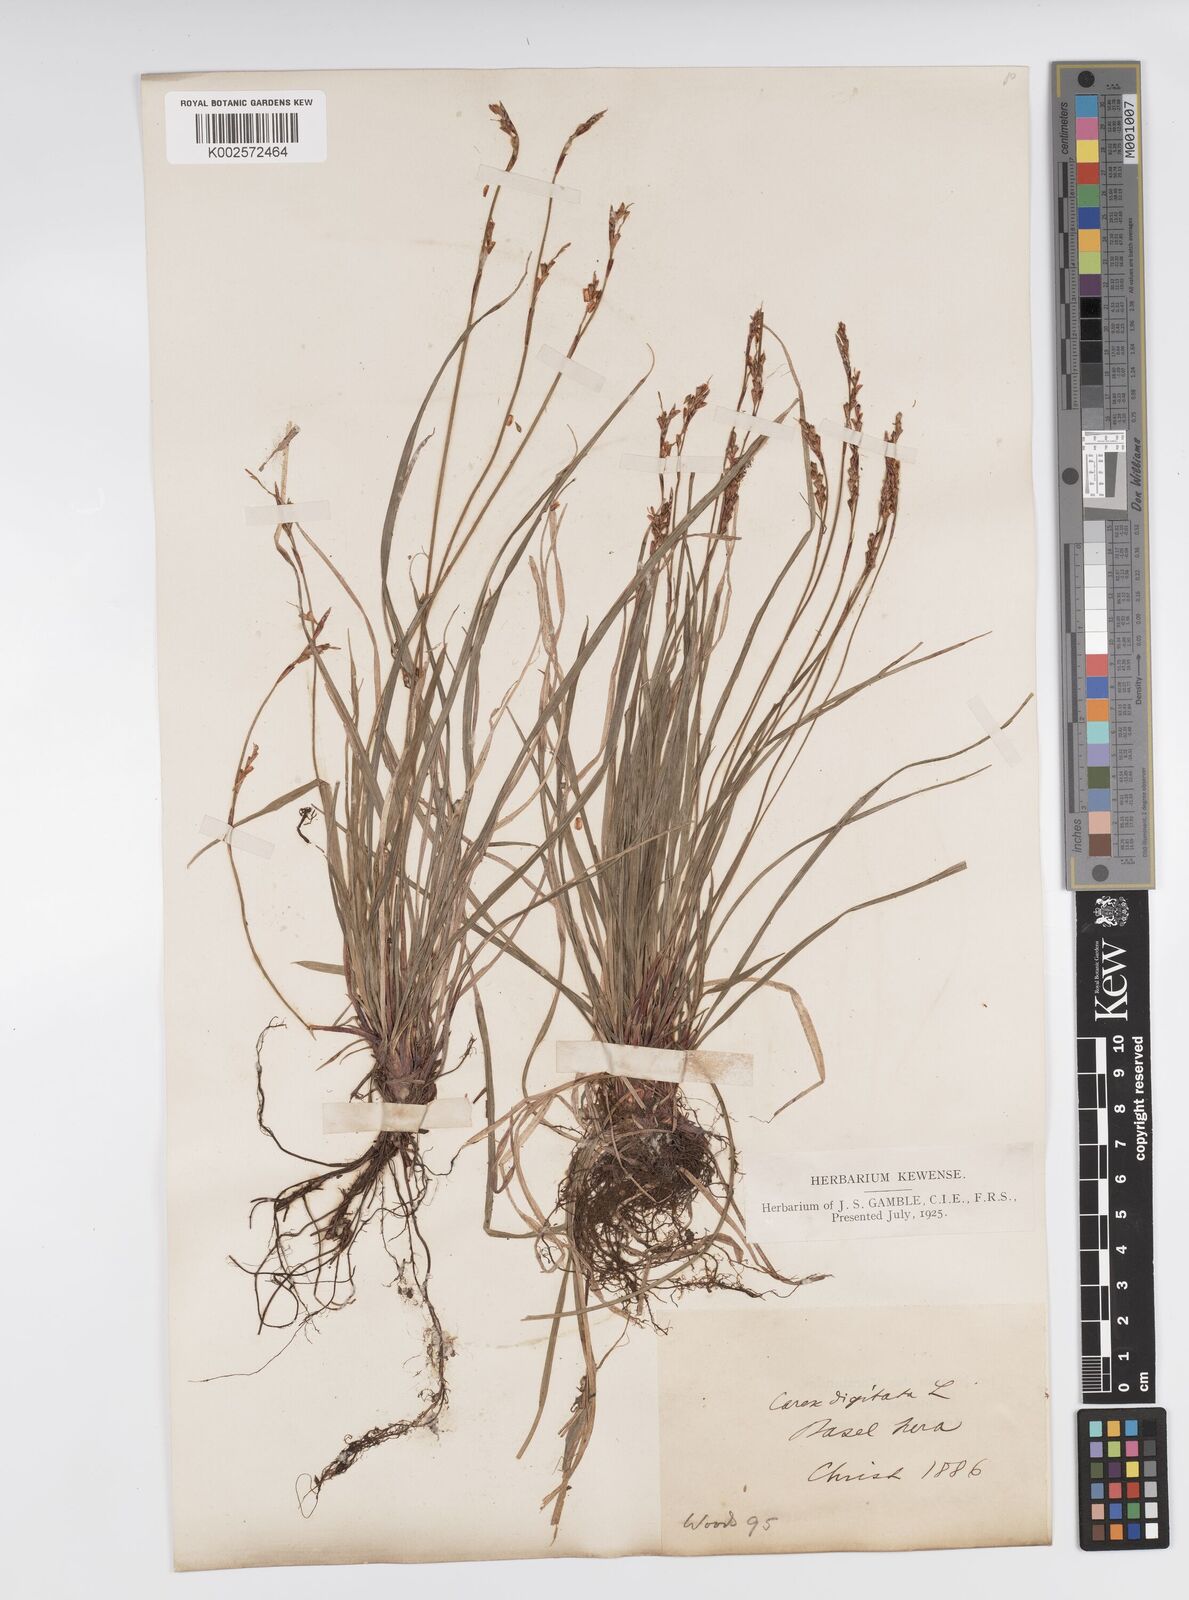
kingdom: Plantae
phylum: Tracheophyta
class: Liliopsida
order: Poales
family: Cyperaceae
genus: Carex
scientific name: Carex digitata
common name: Fingered sedge
